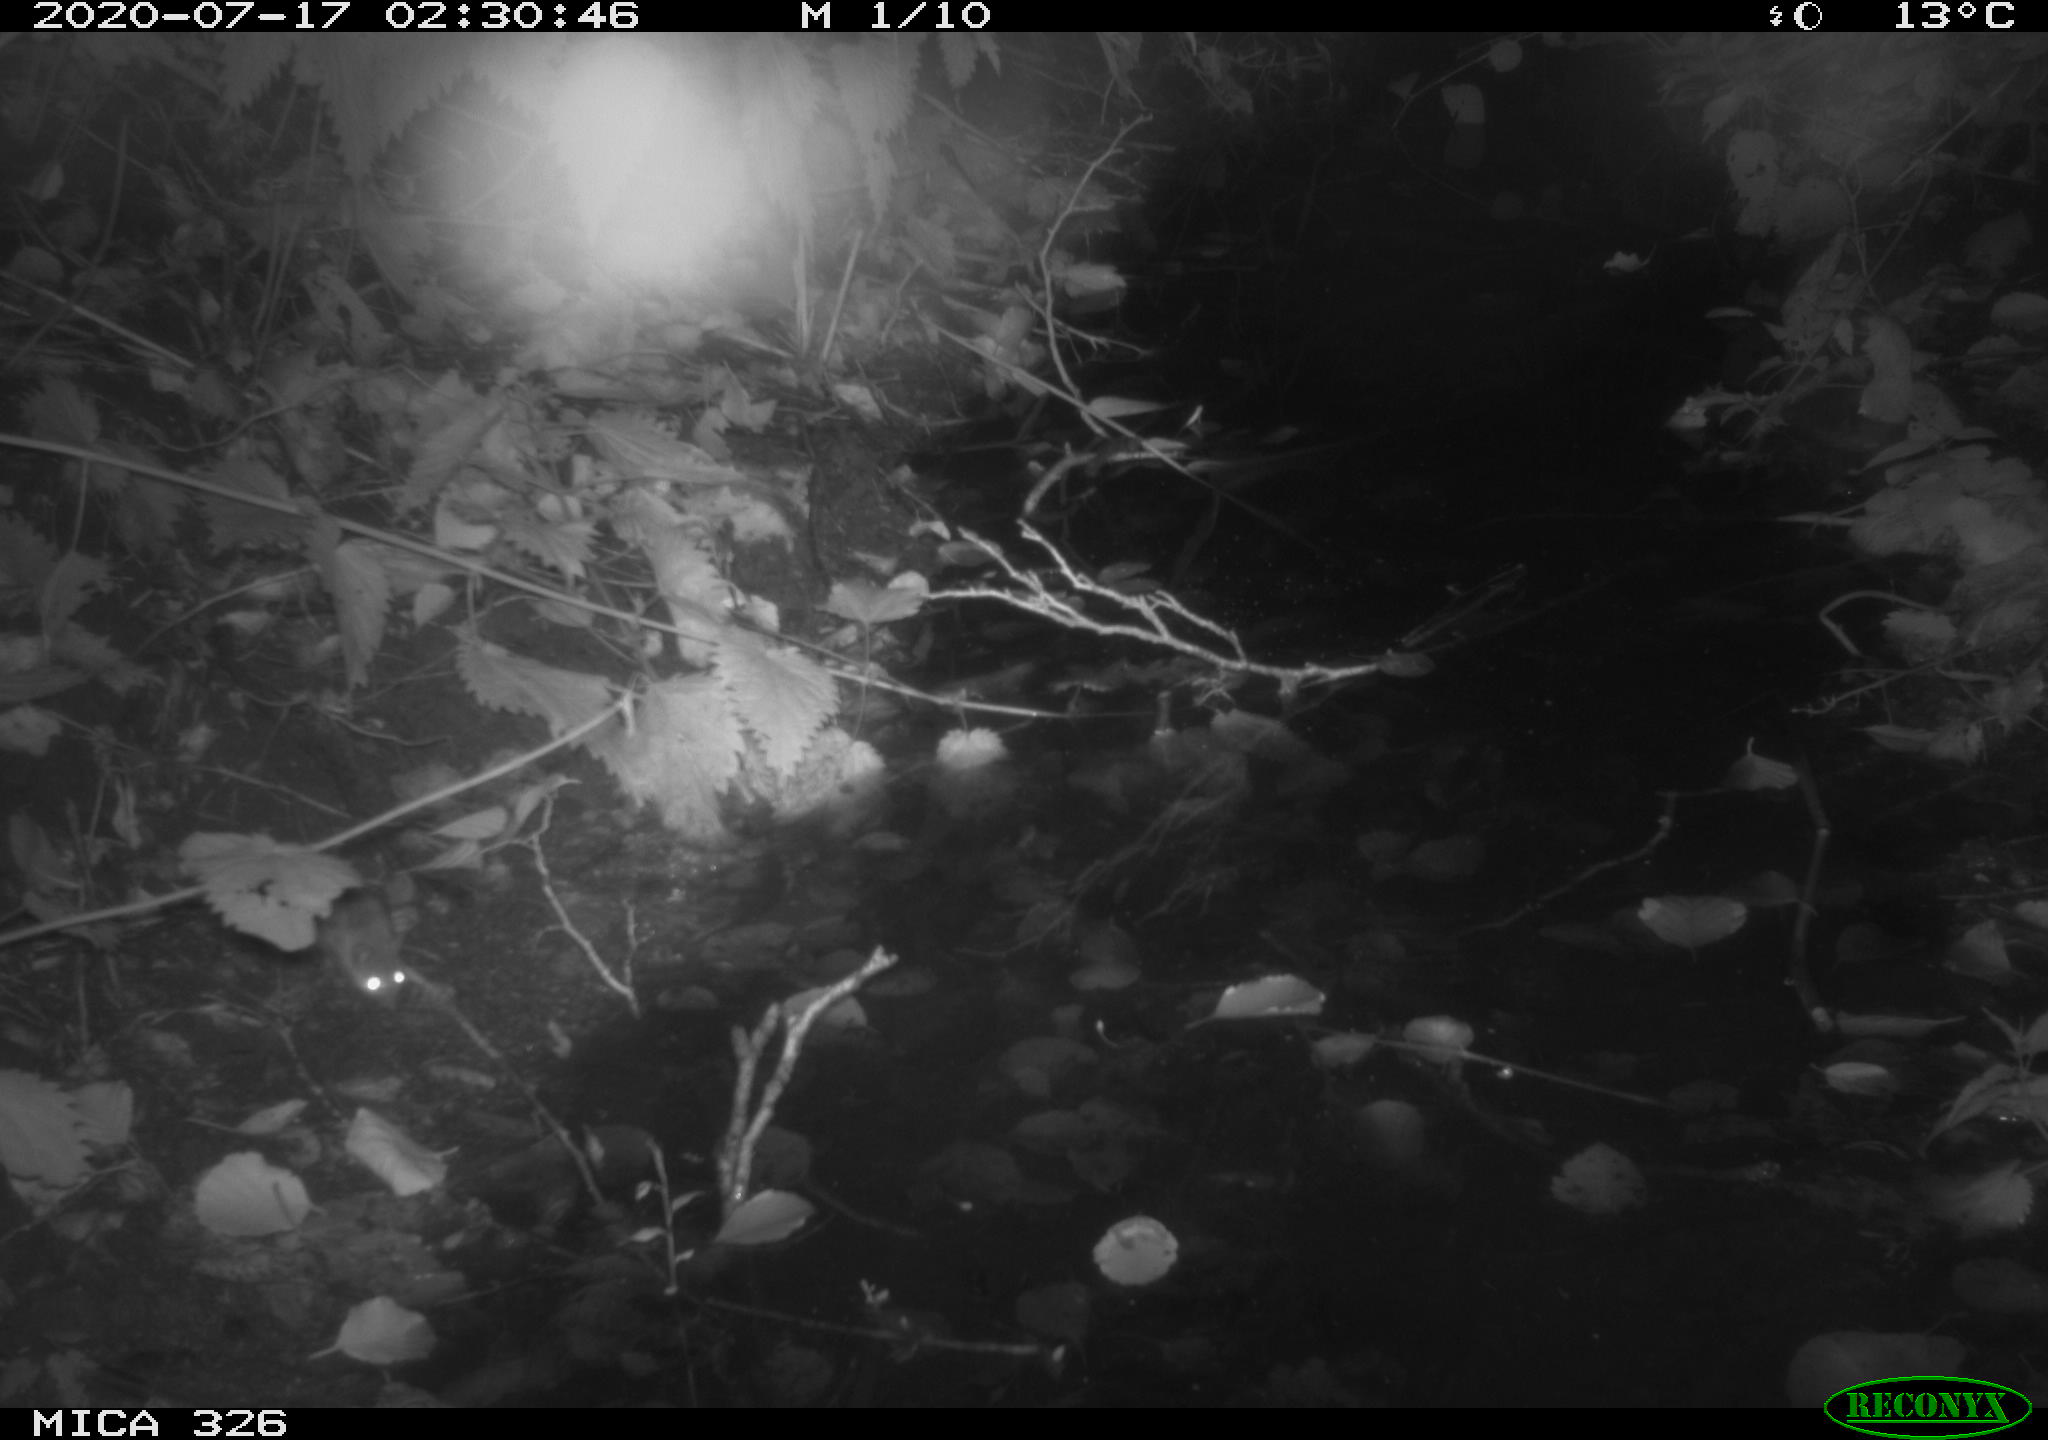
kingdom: Animalia
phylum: Chordata
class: Mammalia
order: Rodentia
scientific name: Rodentia
